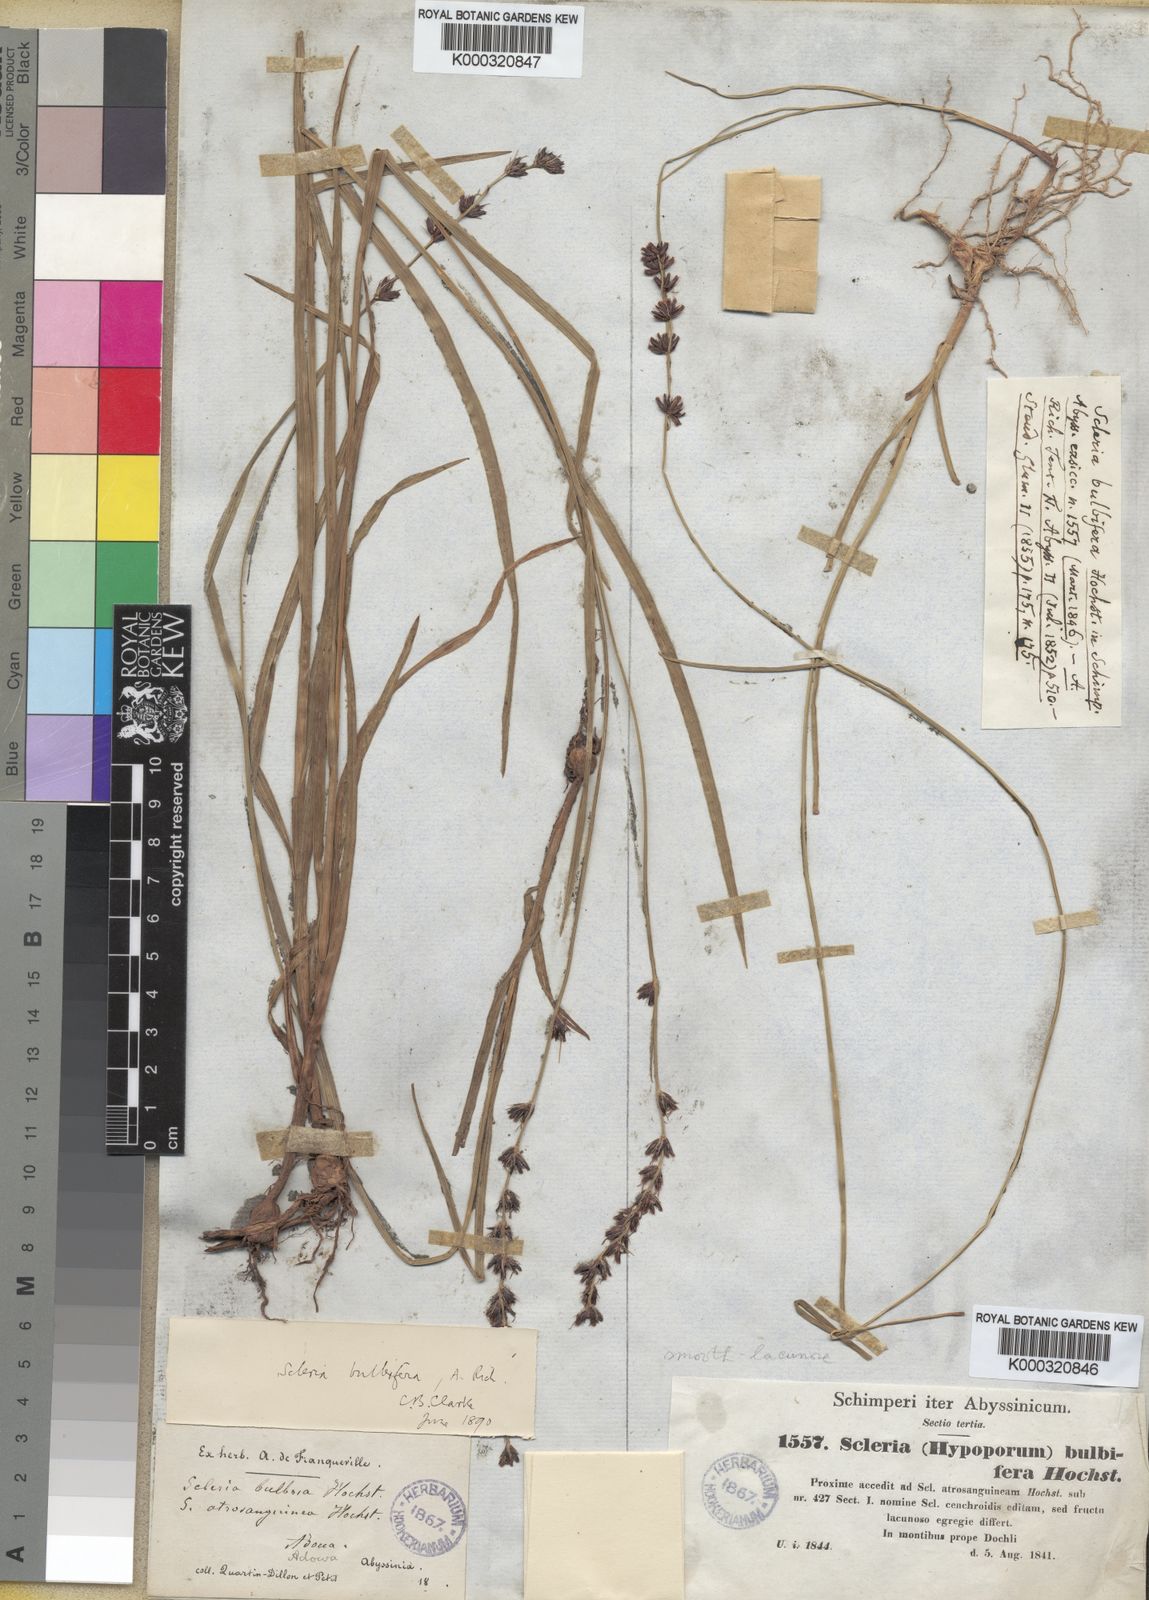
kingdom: Plantae
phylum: Tracheophyta
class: Liliopsida
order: Poales
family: Cyperaceae
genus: Scleria
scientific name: Scleria
